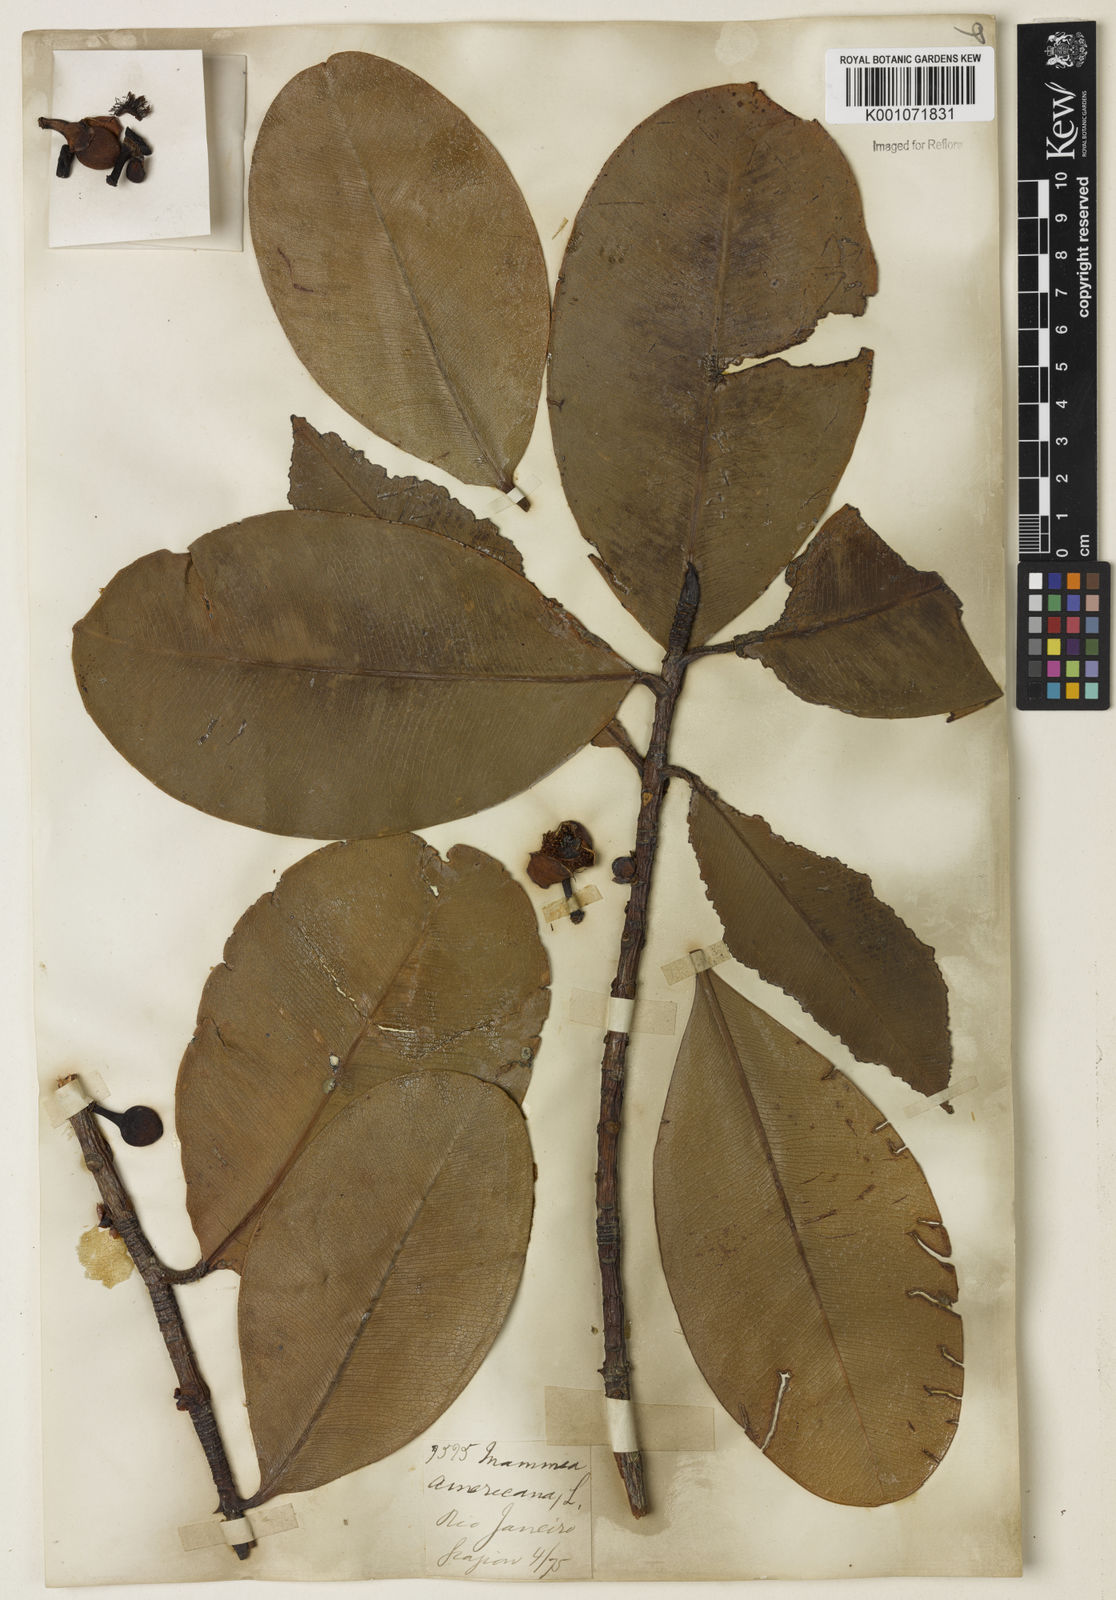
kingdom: Plantae
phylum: Tracheophyta
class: Magnoliopsida
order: Malpighiales
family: Calophyllaceae
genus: Mammea
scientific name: Mammea americana
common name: Mamey
